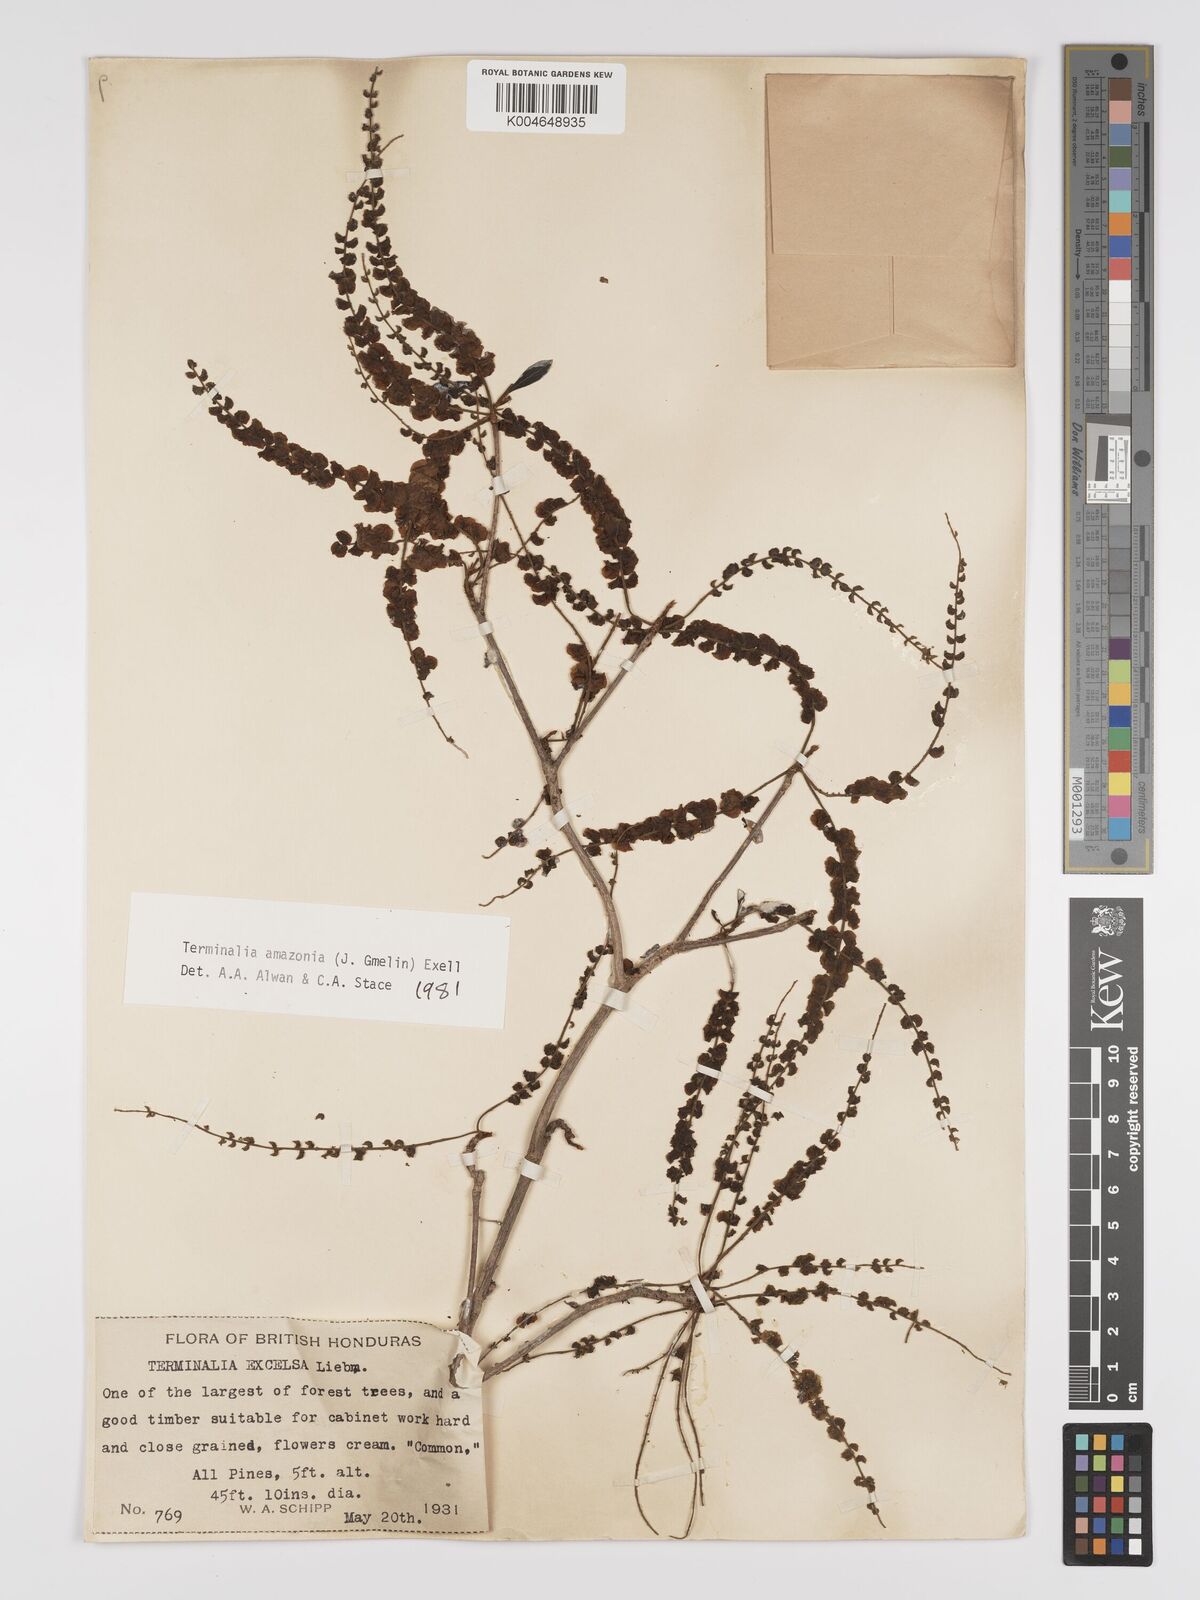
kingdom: Plantae
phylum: Tracheophyta
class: Magnoliopsida
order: Myrtales
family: Combretaceae
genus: Terminalia
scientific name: Terminalia amazonica
